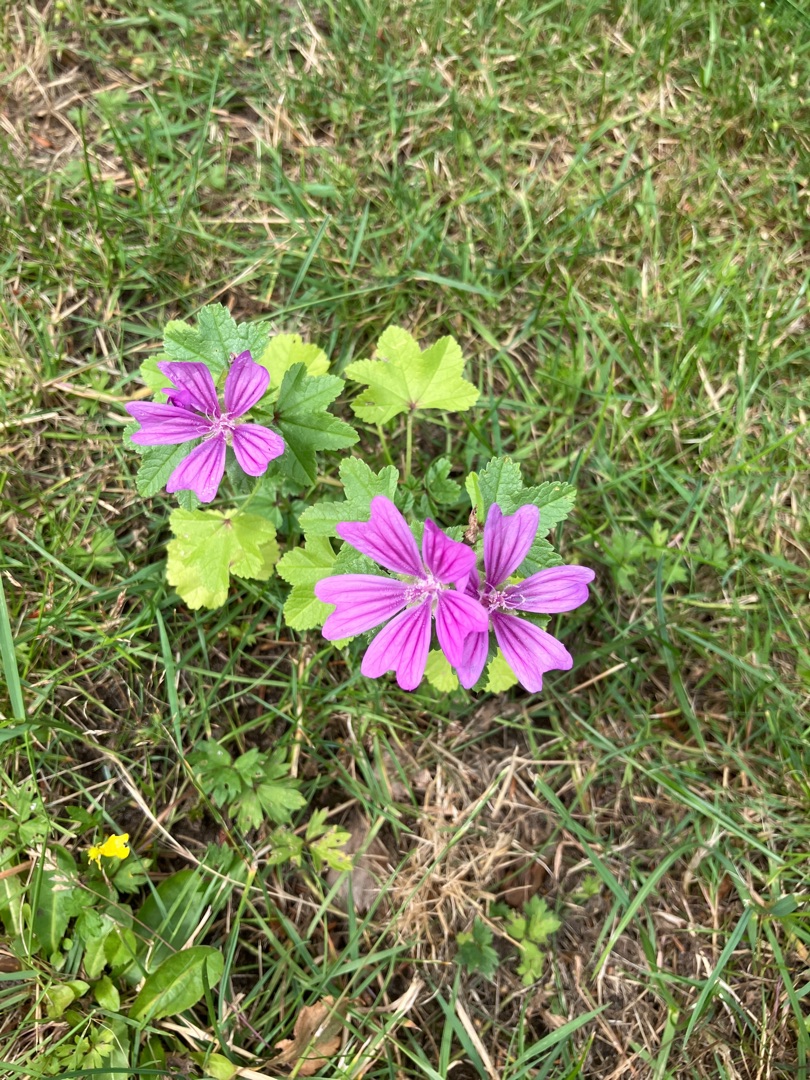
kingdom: Plantae
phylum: Tracheophyta
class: Magnoliopsida
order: Malvales
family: Malvaceae
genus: Malva
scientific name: Malva sylvestris
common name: Almindelig katost
